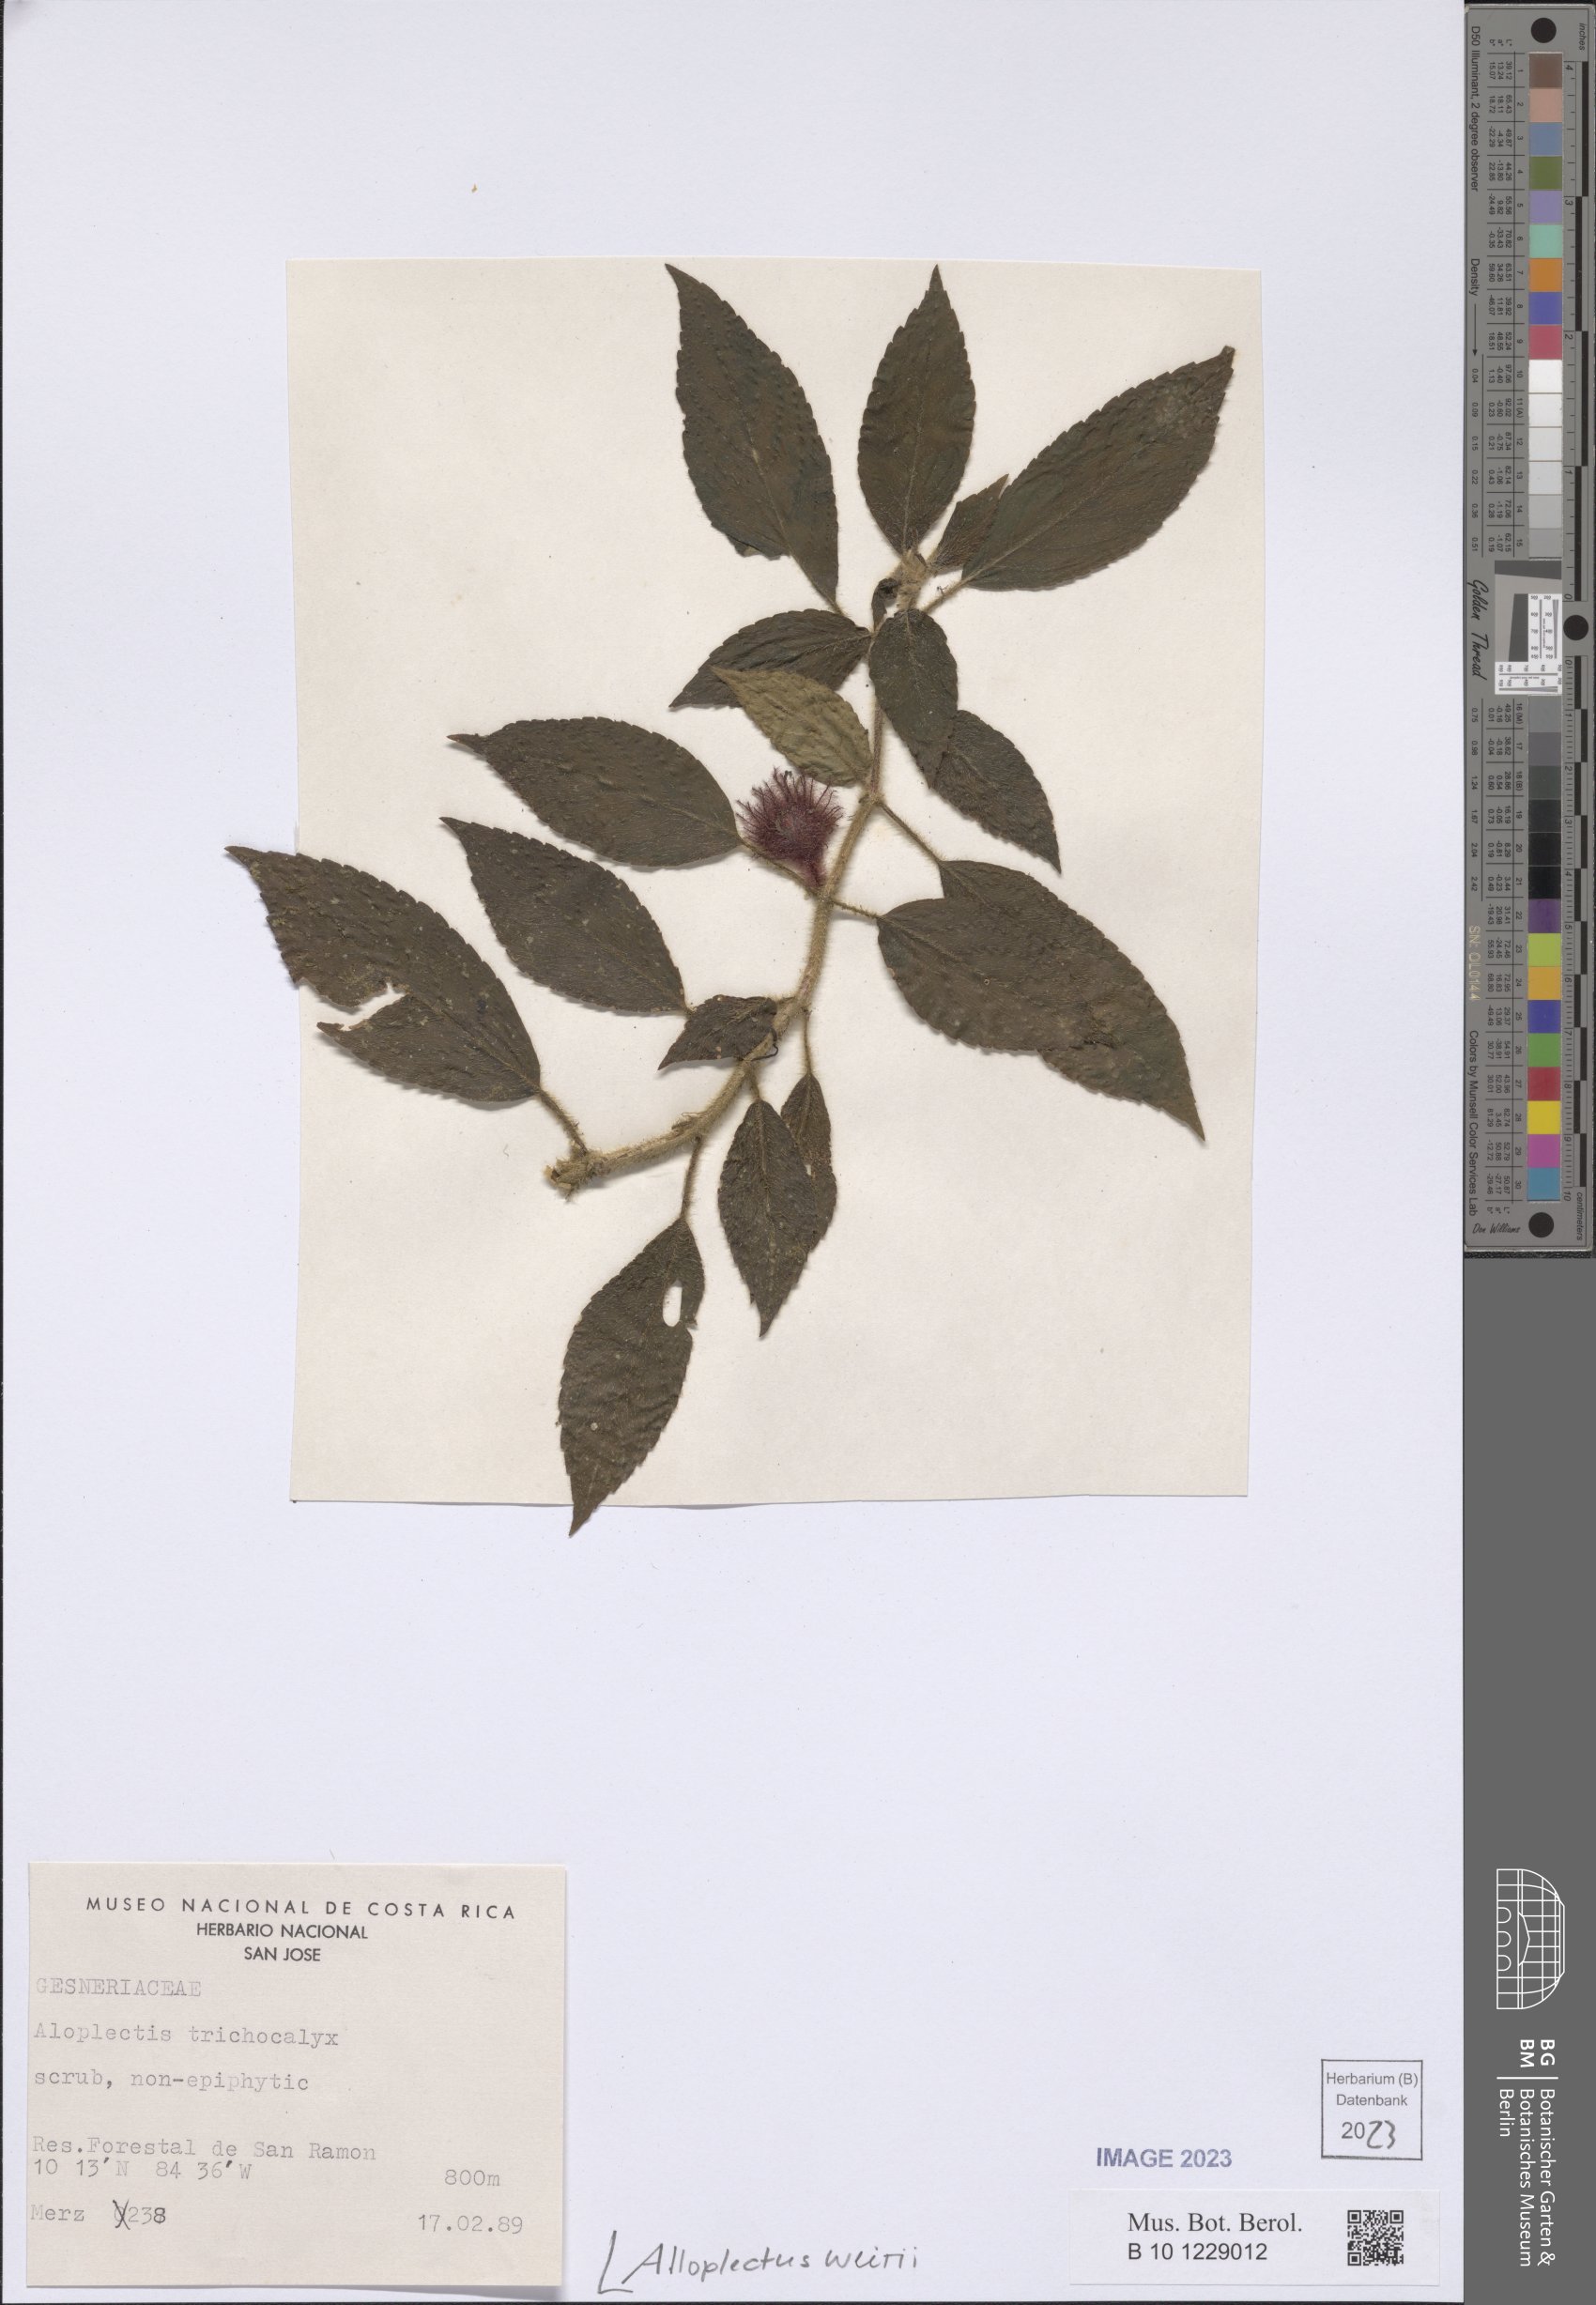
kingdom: Plantae
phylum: Tracheophyta
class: Magnoliopsida
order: Lamiales
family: Gesneriaceae
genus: Alloplectus
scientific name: Alloplectus weirii
